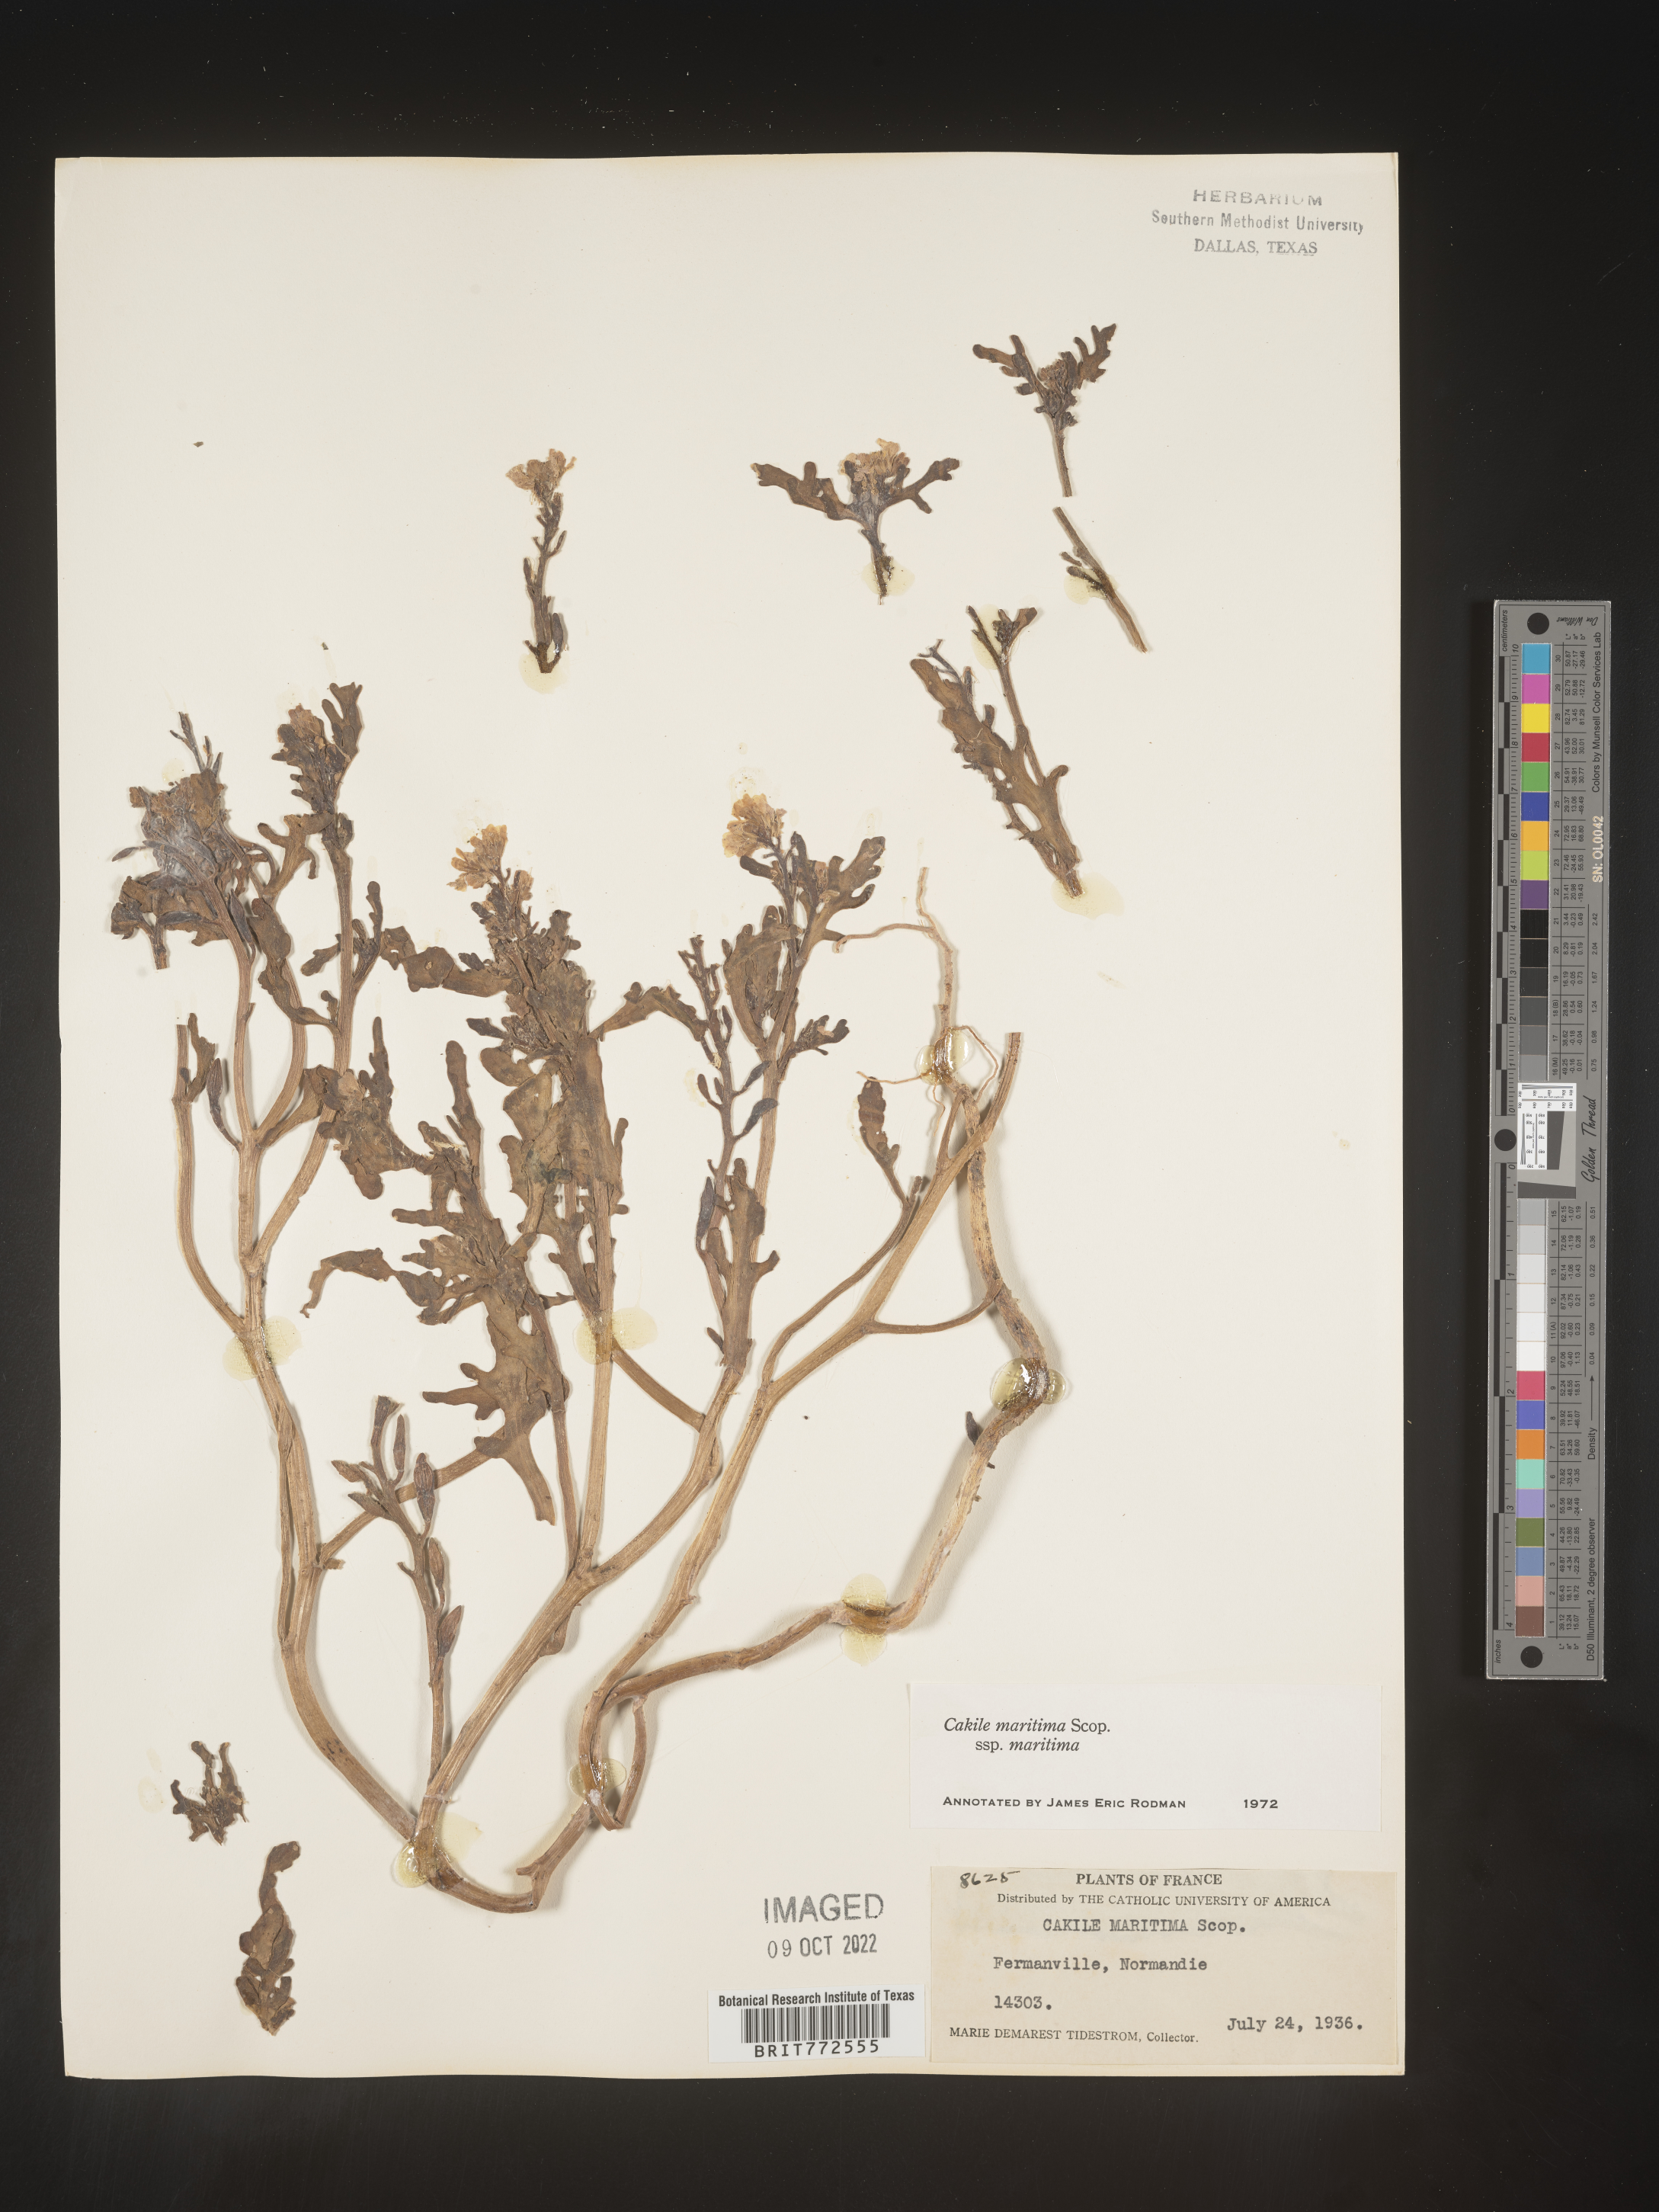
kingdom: Plantae
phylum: Tracheophyta
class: Magnoliopsida
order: Brassicales
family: Brassicaceae
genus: Cakile
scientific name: Cakile
